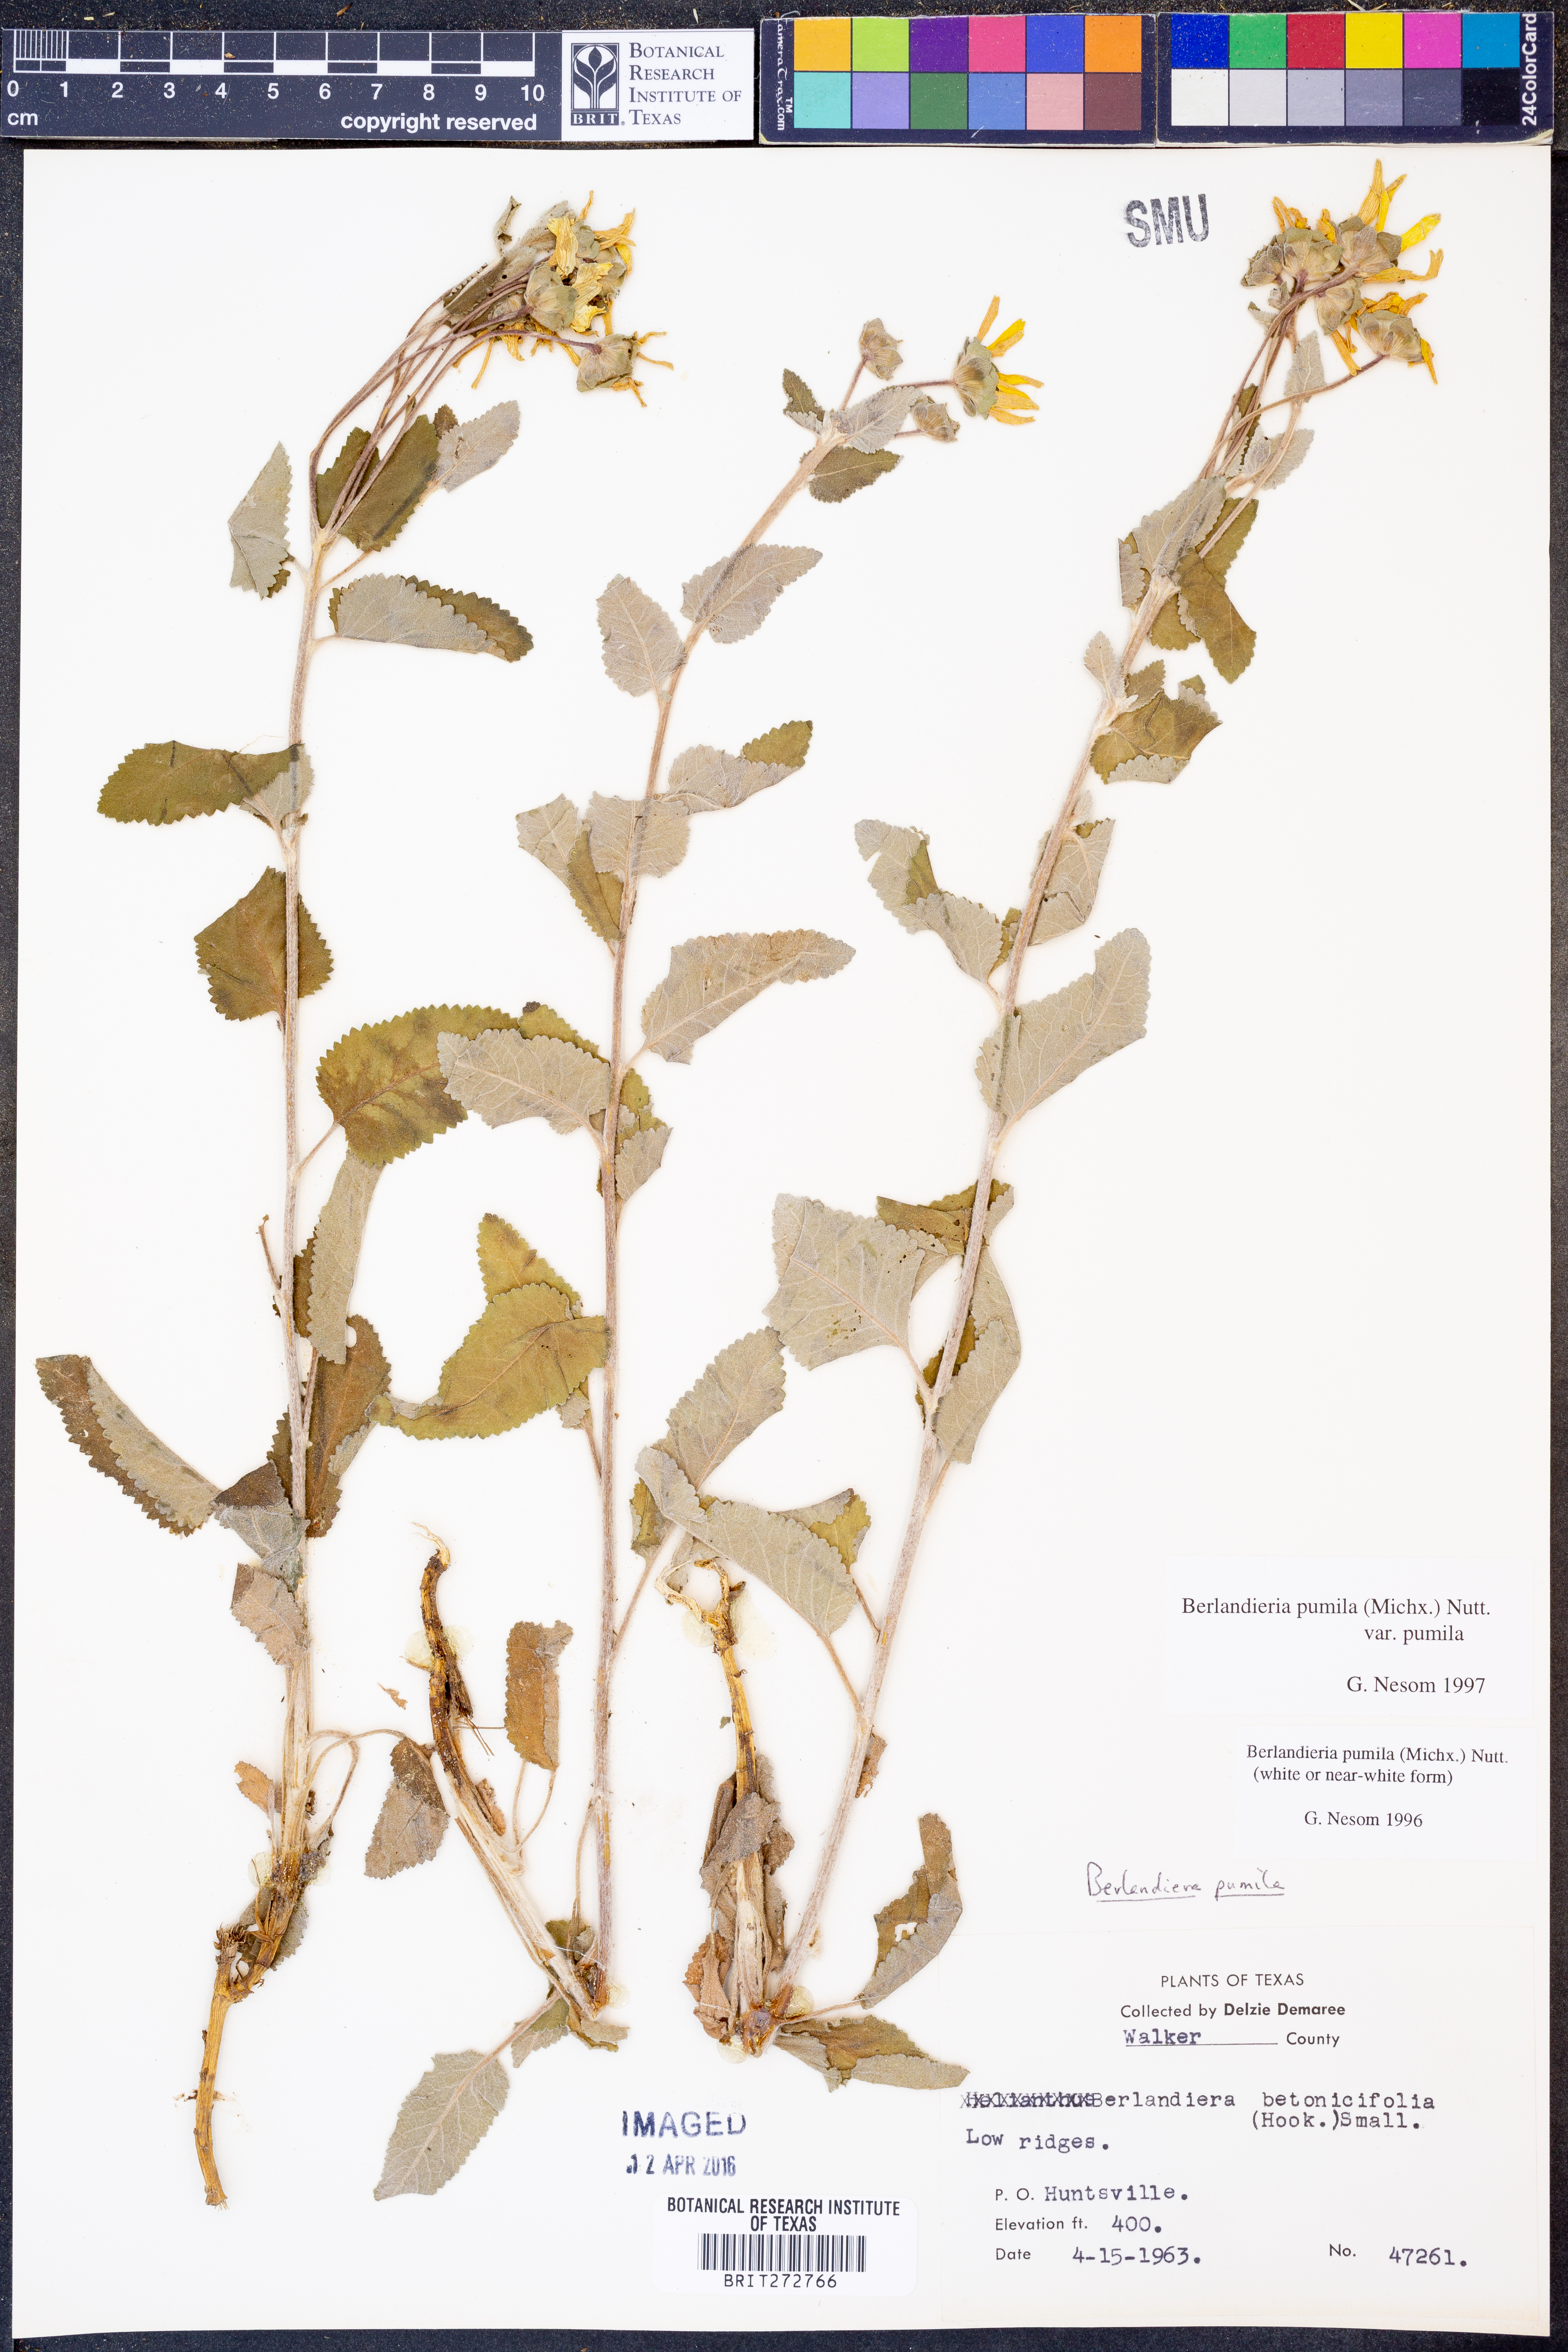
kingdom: Plantae
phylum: Tracheophyta
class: Magnoliopsida
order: Asterales
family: Asteraceae
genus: Berlandiera
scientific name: Berlandiera pumila
